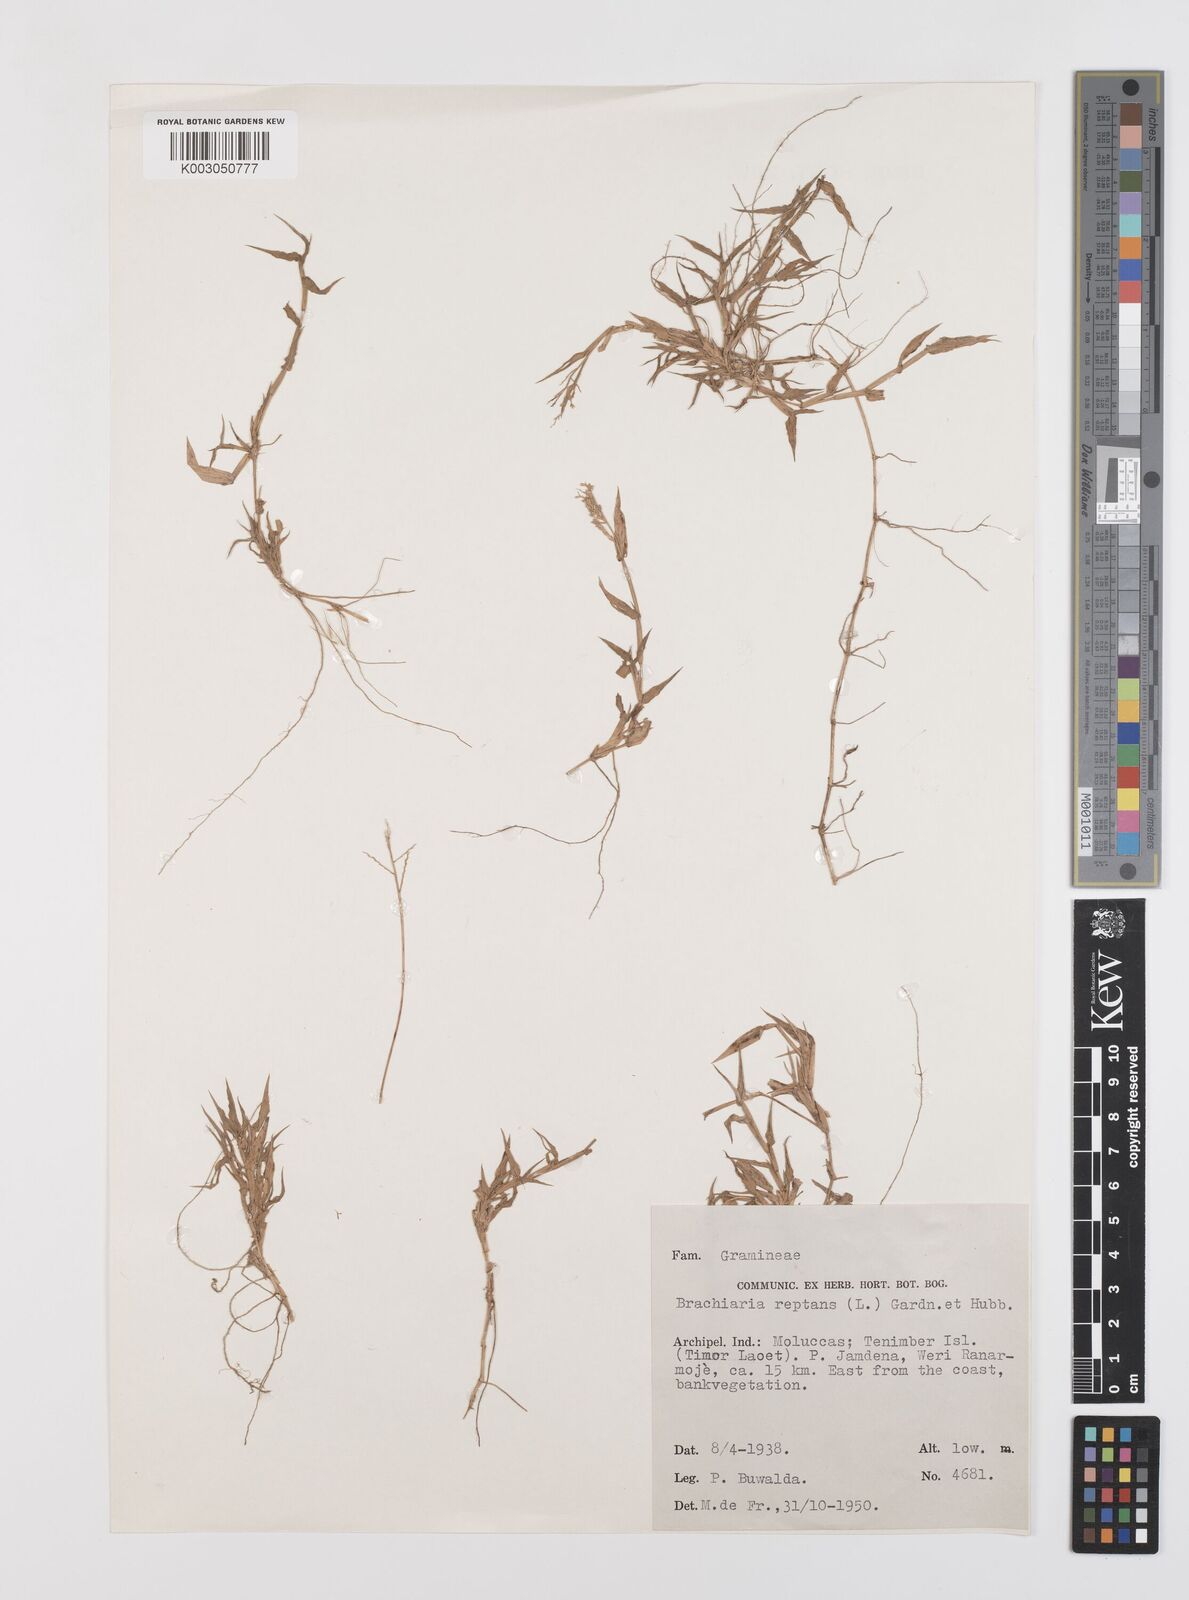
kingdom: Plantae
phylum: Tracheophyta
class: Liliopsida
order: Poales
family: Poaceae
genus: Urochloa
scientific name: Urochloa reptans
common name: Sprawling signalgrass
